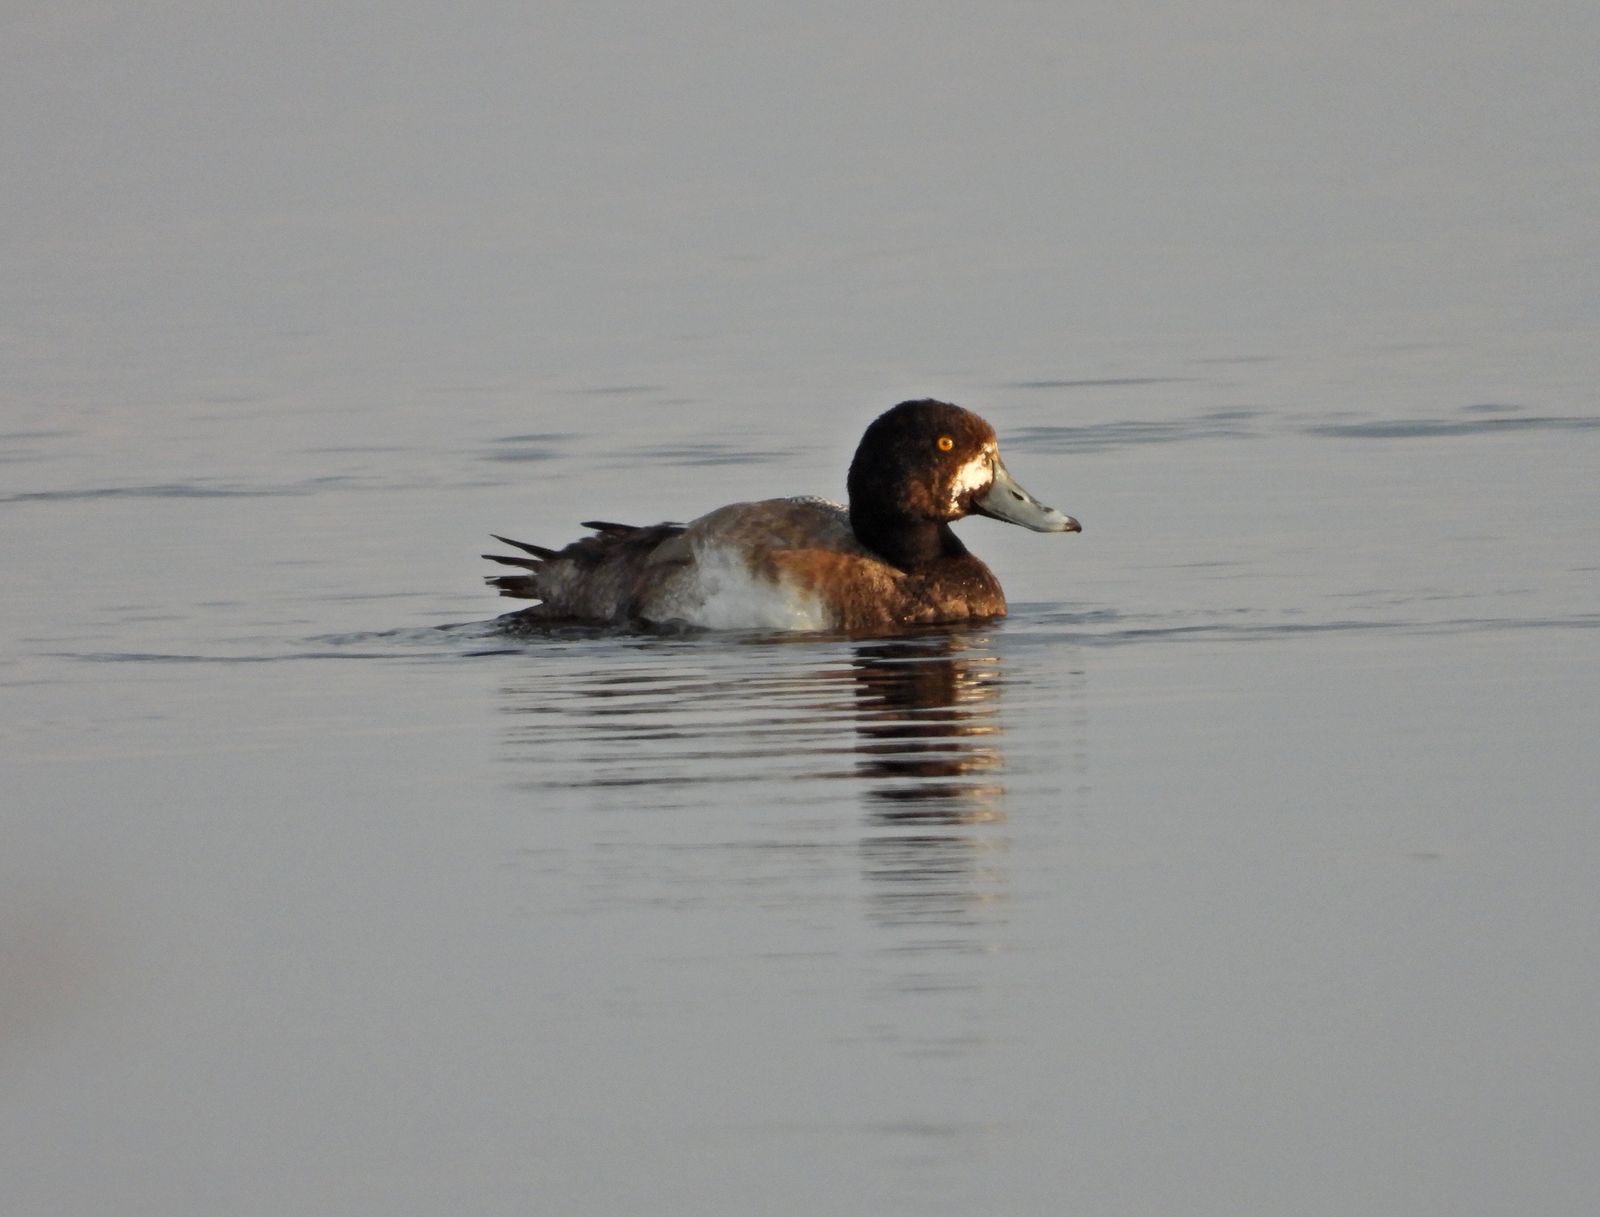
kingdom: Animalia
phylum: Chordata
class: Aves
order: Anseriformes
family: Anatidae
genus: Aythya
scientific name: Aythya marila
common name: Greater scaup
